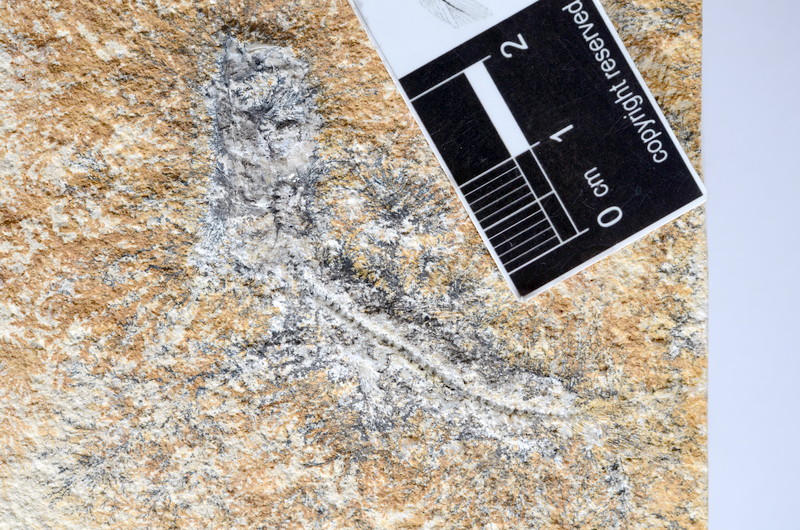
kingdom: Animalia
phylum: Chordata
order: Salmoniformes
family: Orthogonikleithridae
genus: Leptolepides
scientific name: Leptolepides sprattiformis
